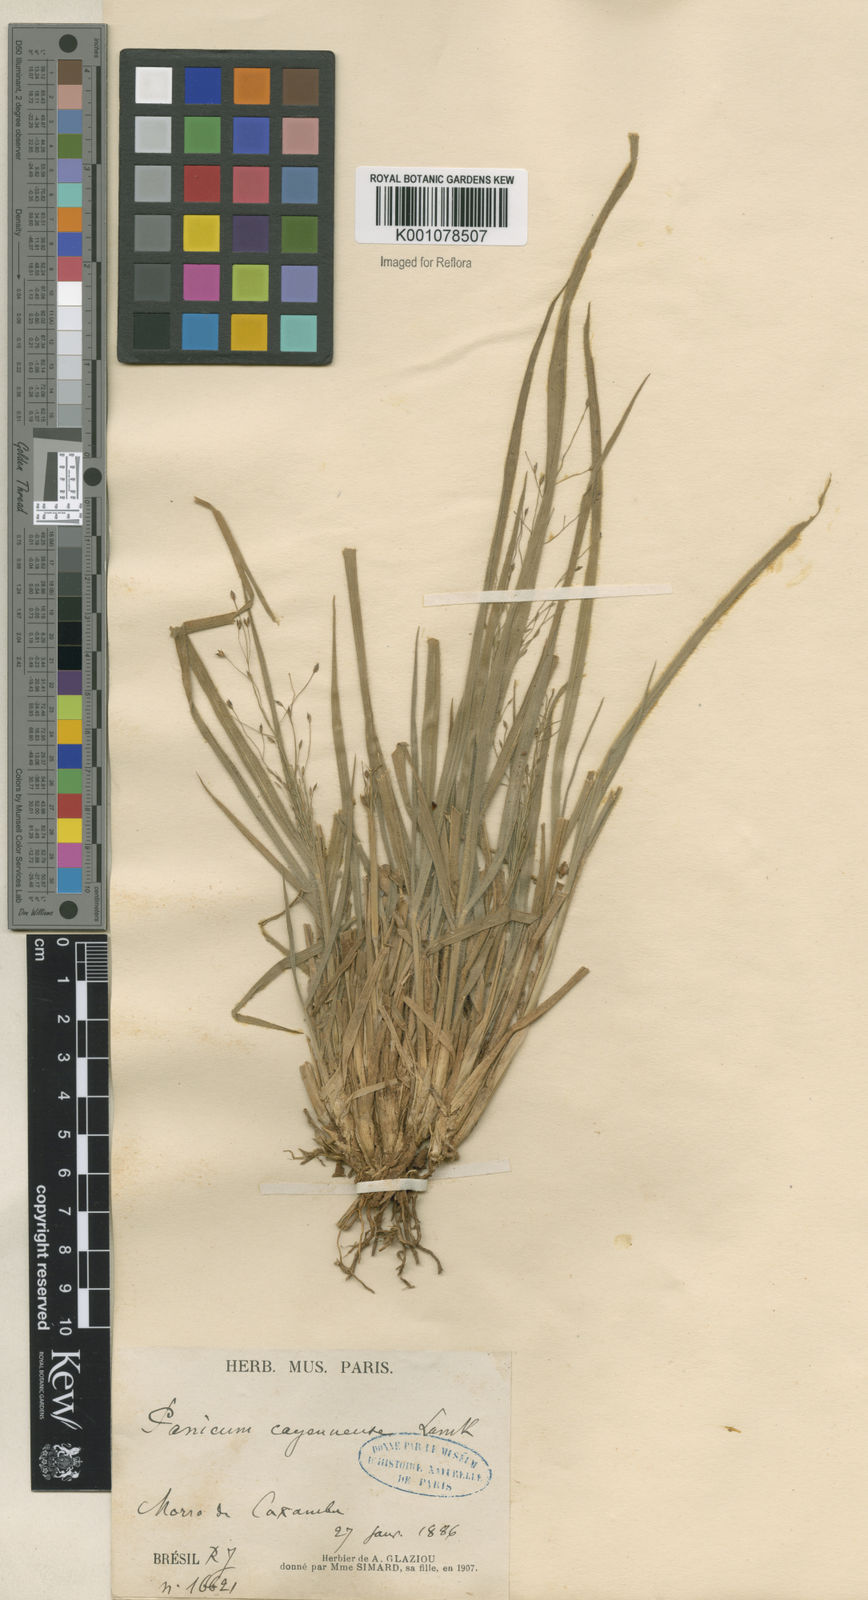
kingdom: Plantae
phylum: Tracheophyta
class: Liliopsida
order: Poales
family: Poaceae
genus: Panicum
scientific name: Panicum campestre
